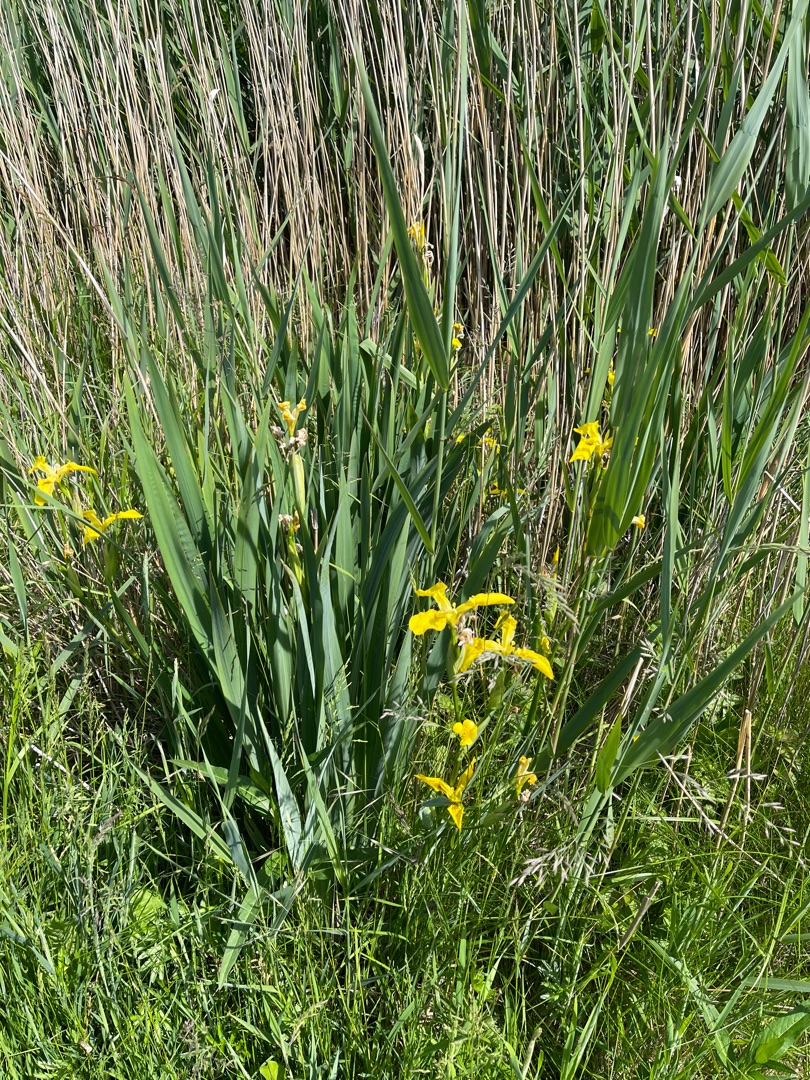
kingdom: Plantae
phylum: Tracheophyta
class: Liliopsida
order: Asparagales
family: Iridaceae
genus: Iris
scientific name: Iris pseudacorus
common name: Gul iris
